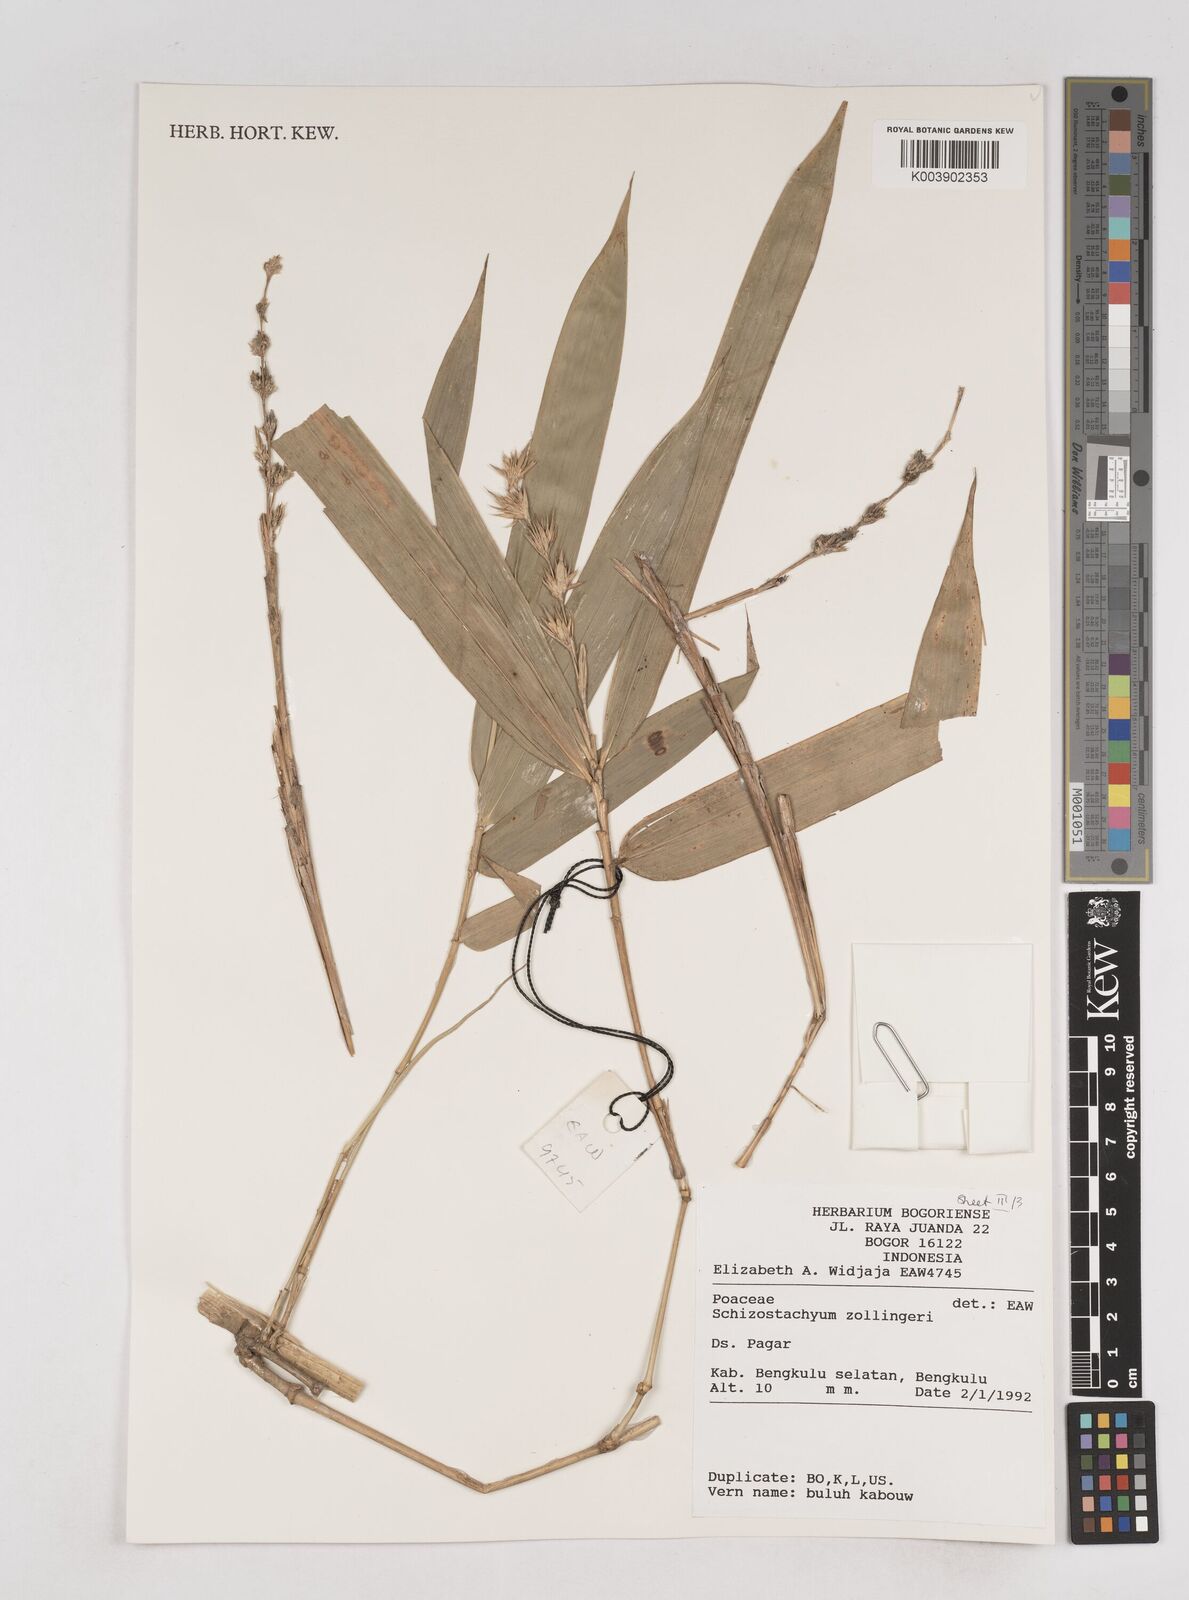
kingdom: Plantae
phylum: Tracheophyta
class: Liliopsida
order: Poales
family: Poaceae
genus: Schizostachyum
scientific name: Schizostachyum zollingeri
